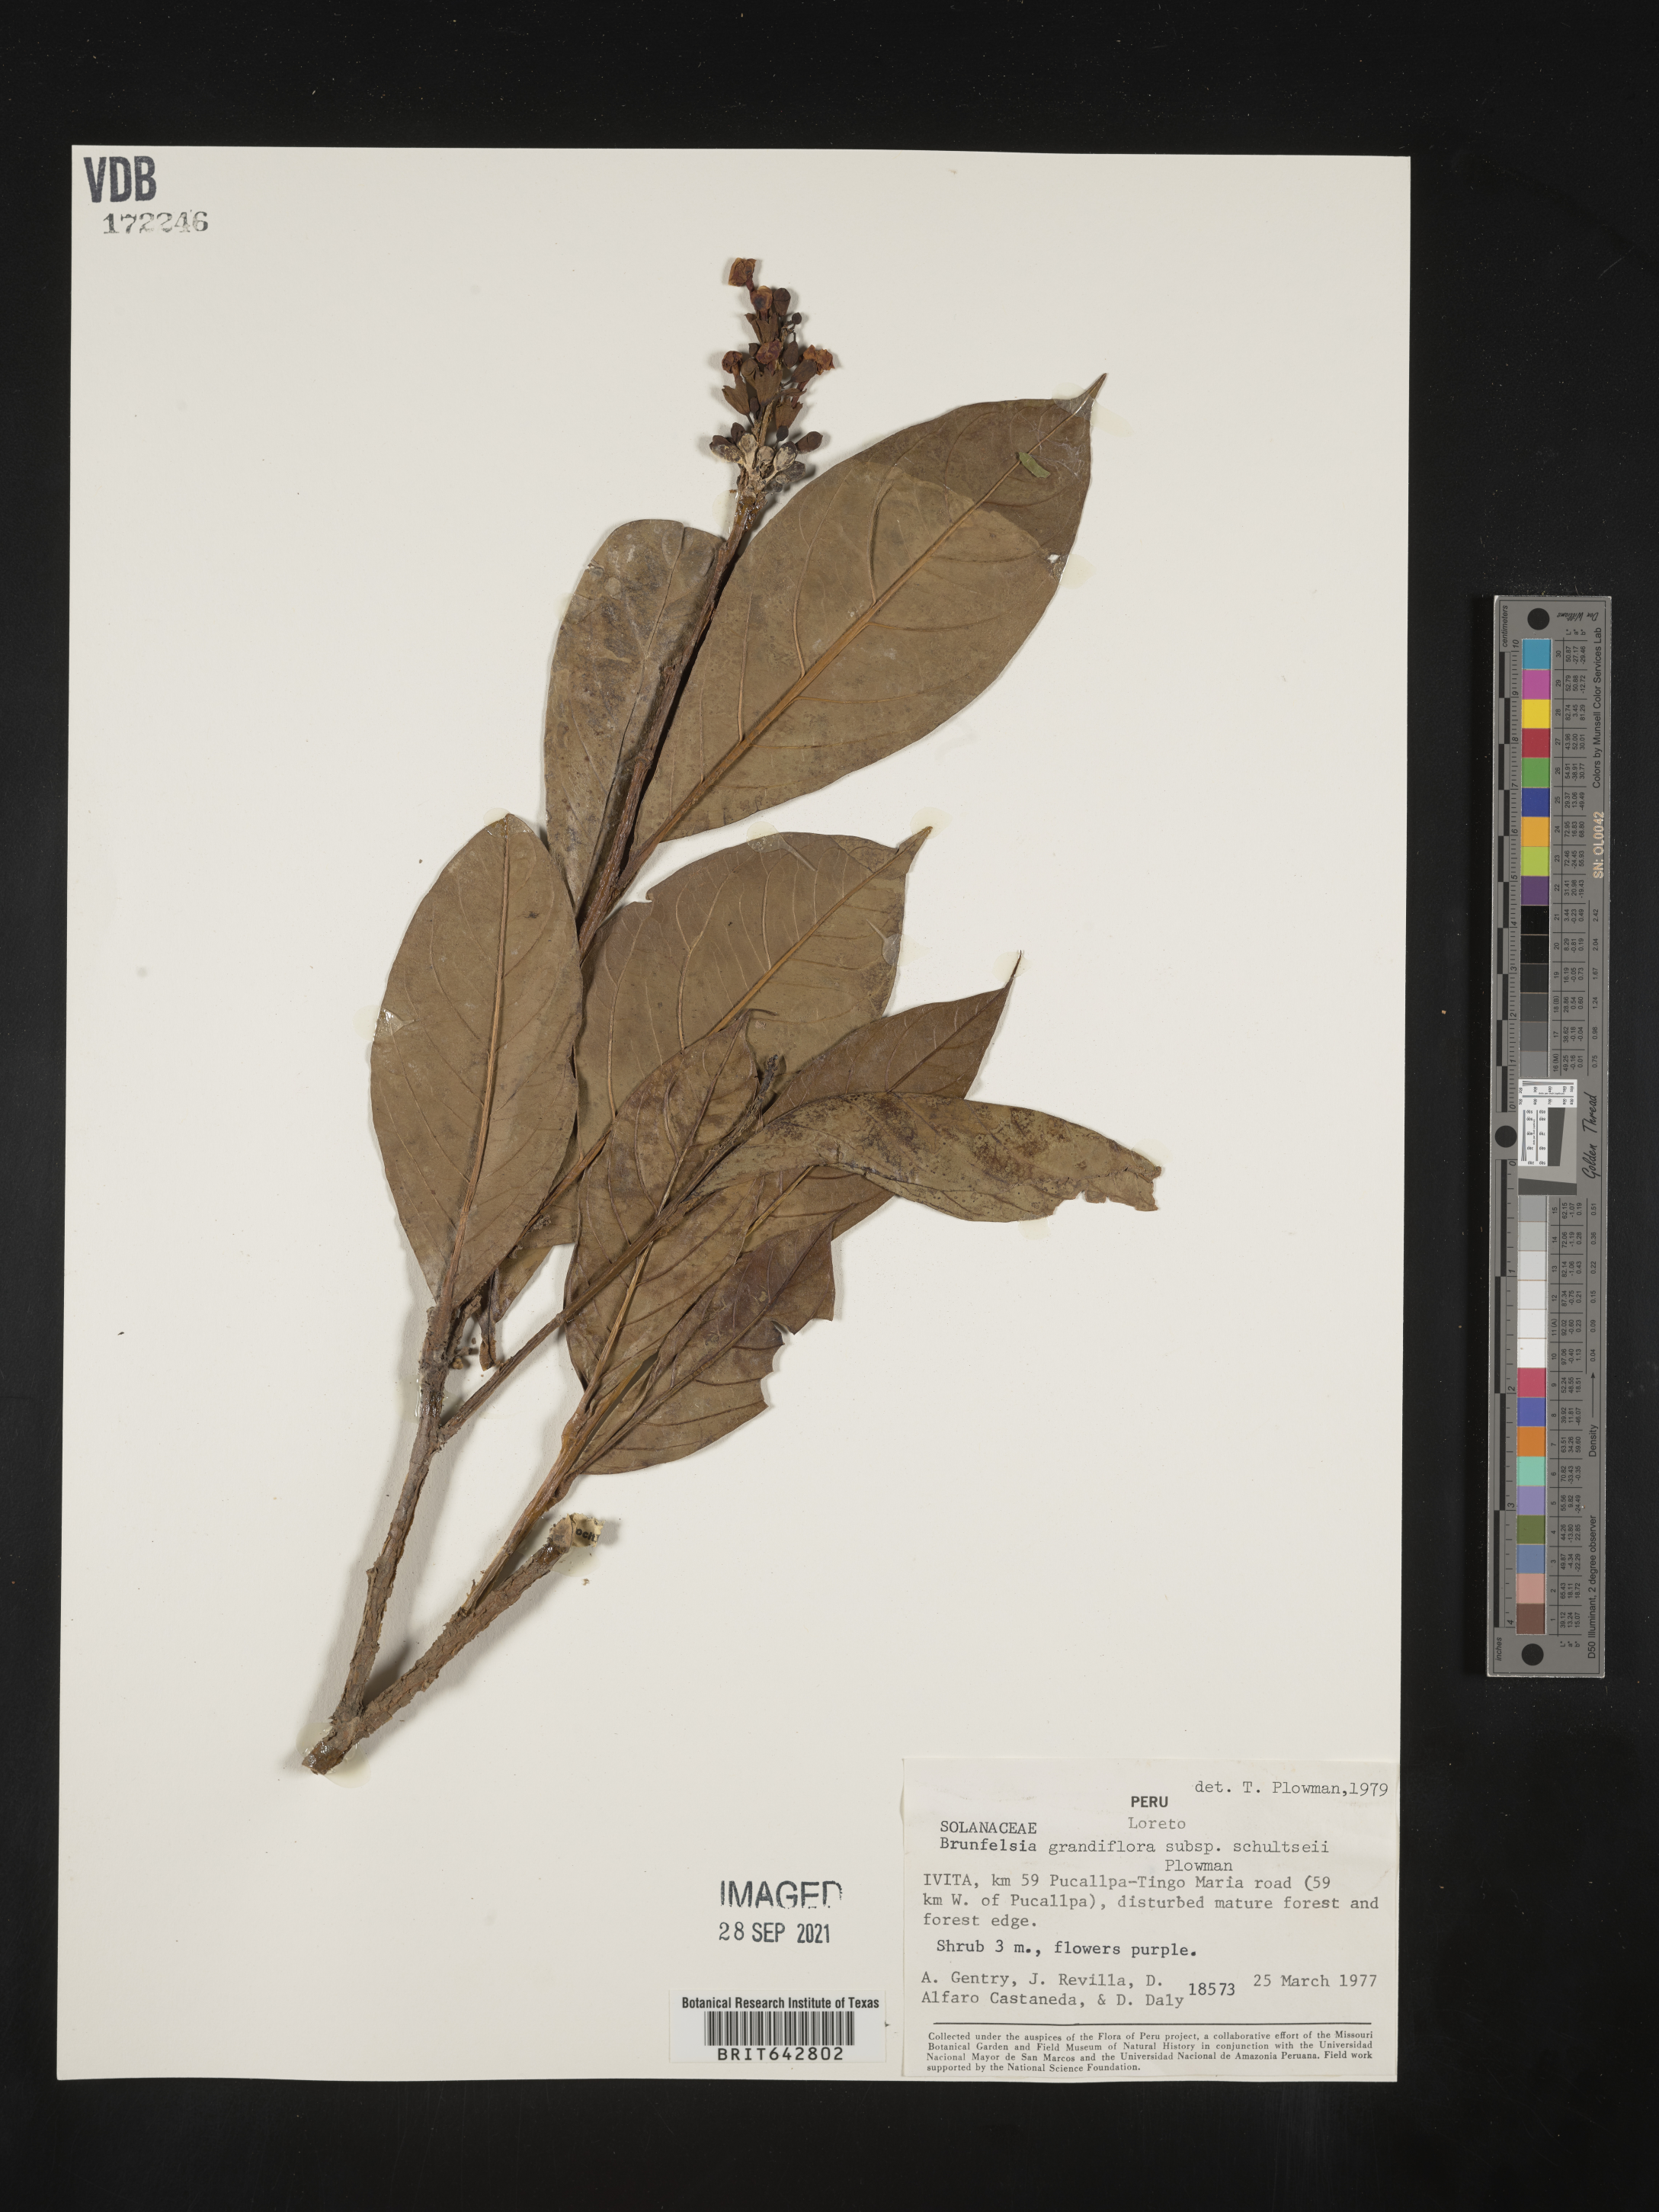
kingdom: Plantae
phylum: Tracheophyta
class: Magnoliopsida
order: Solanales
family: Solanaceae
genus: Brunfelsia
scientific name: Brunfelsia
